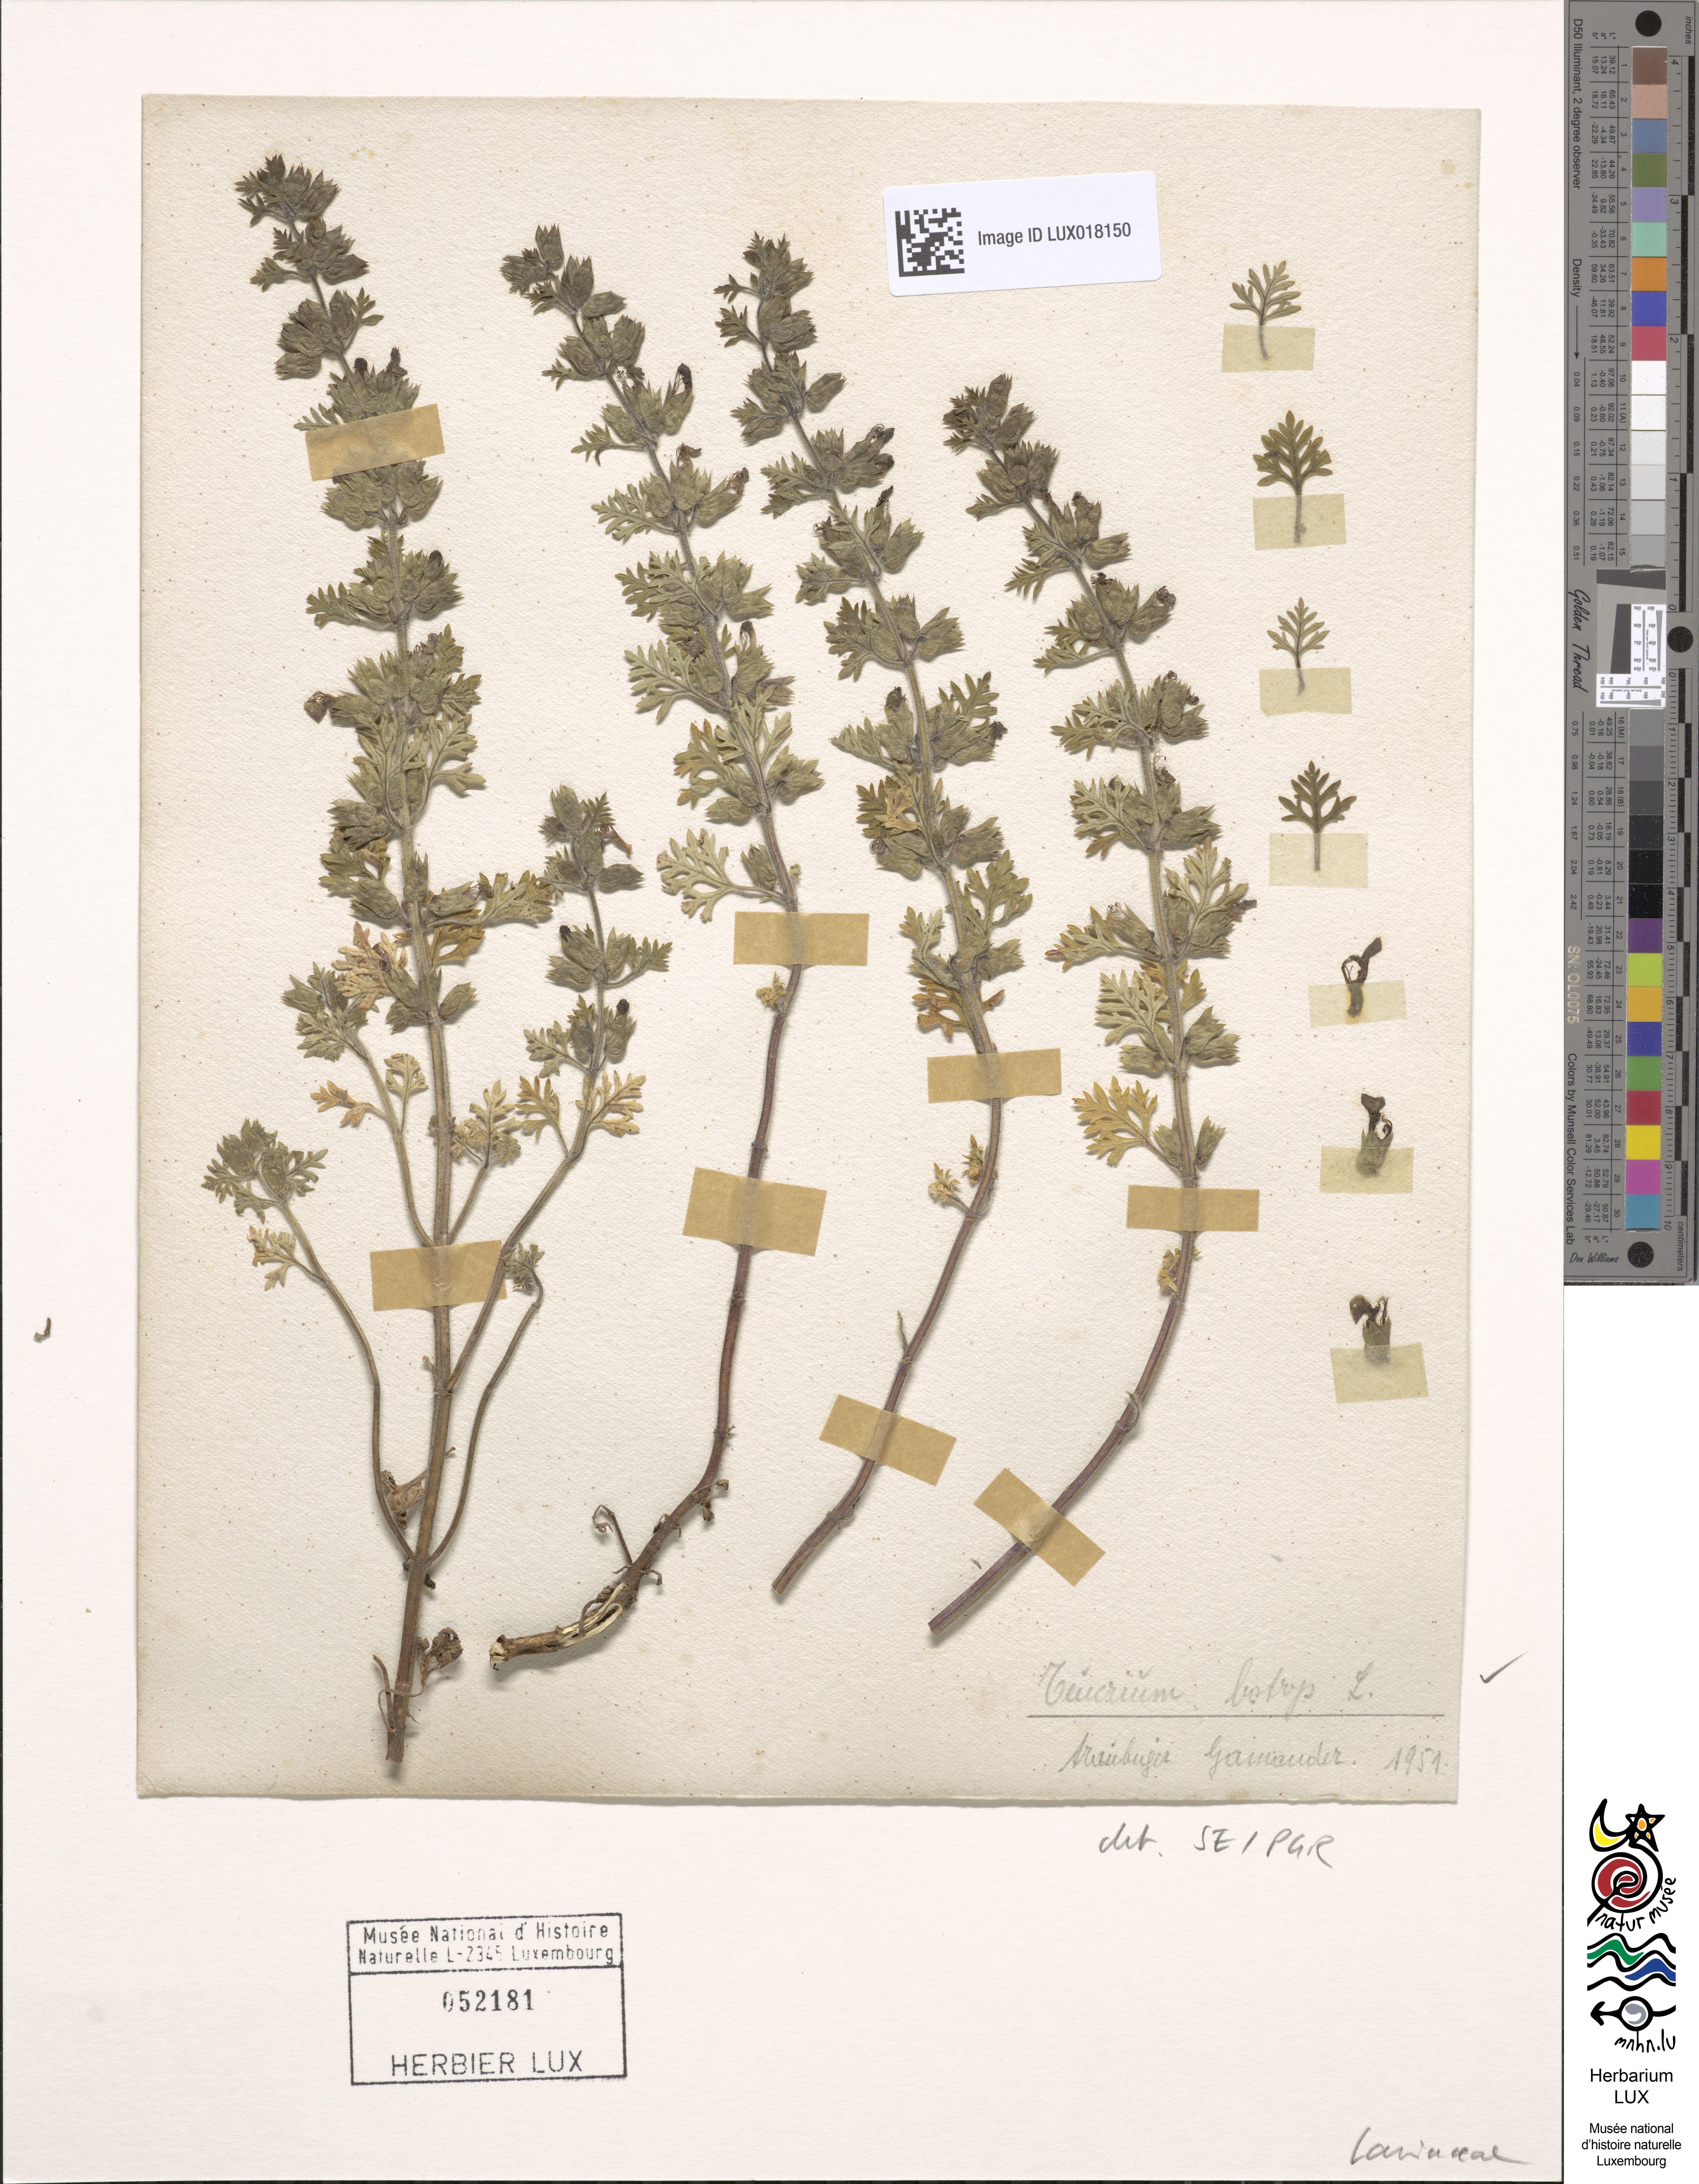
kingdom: Plantae
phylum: Tracheophyta
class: Magnoliopsida
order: Lamiales
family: Lamiaceae
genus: Teucrium
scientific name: Teucrium botrys
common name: Cut-leaved germander
